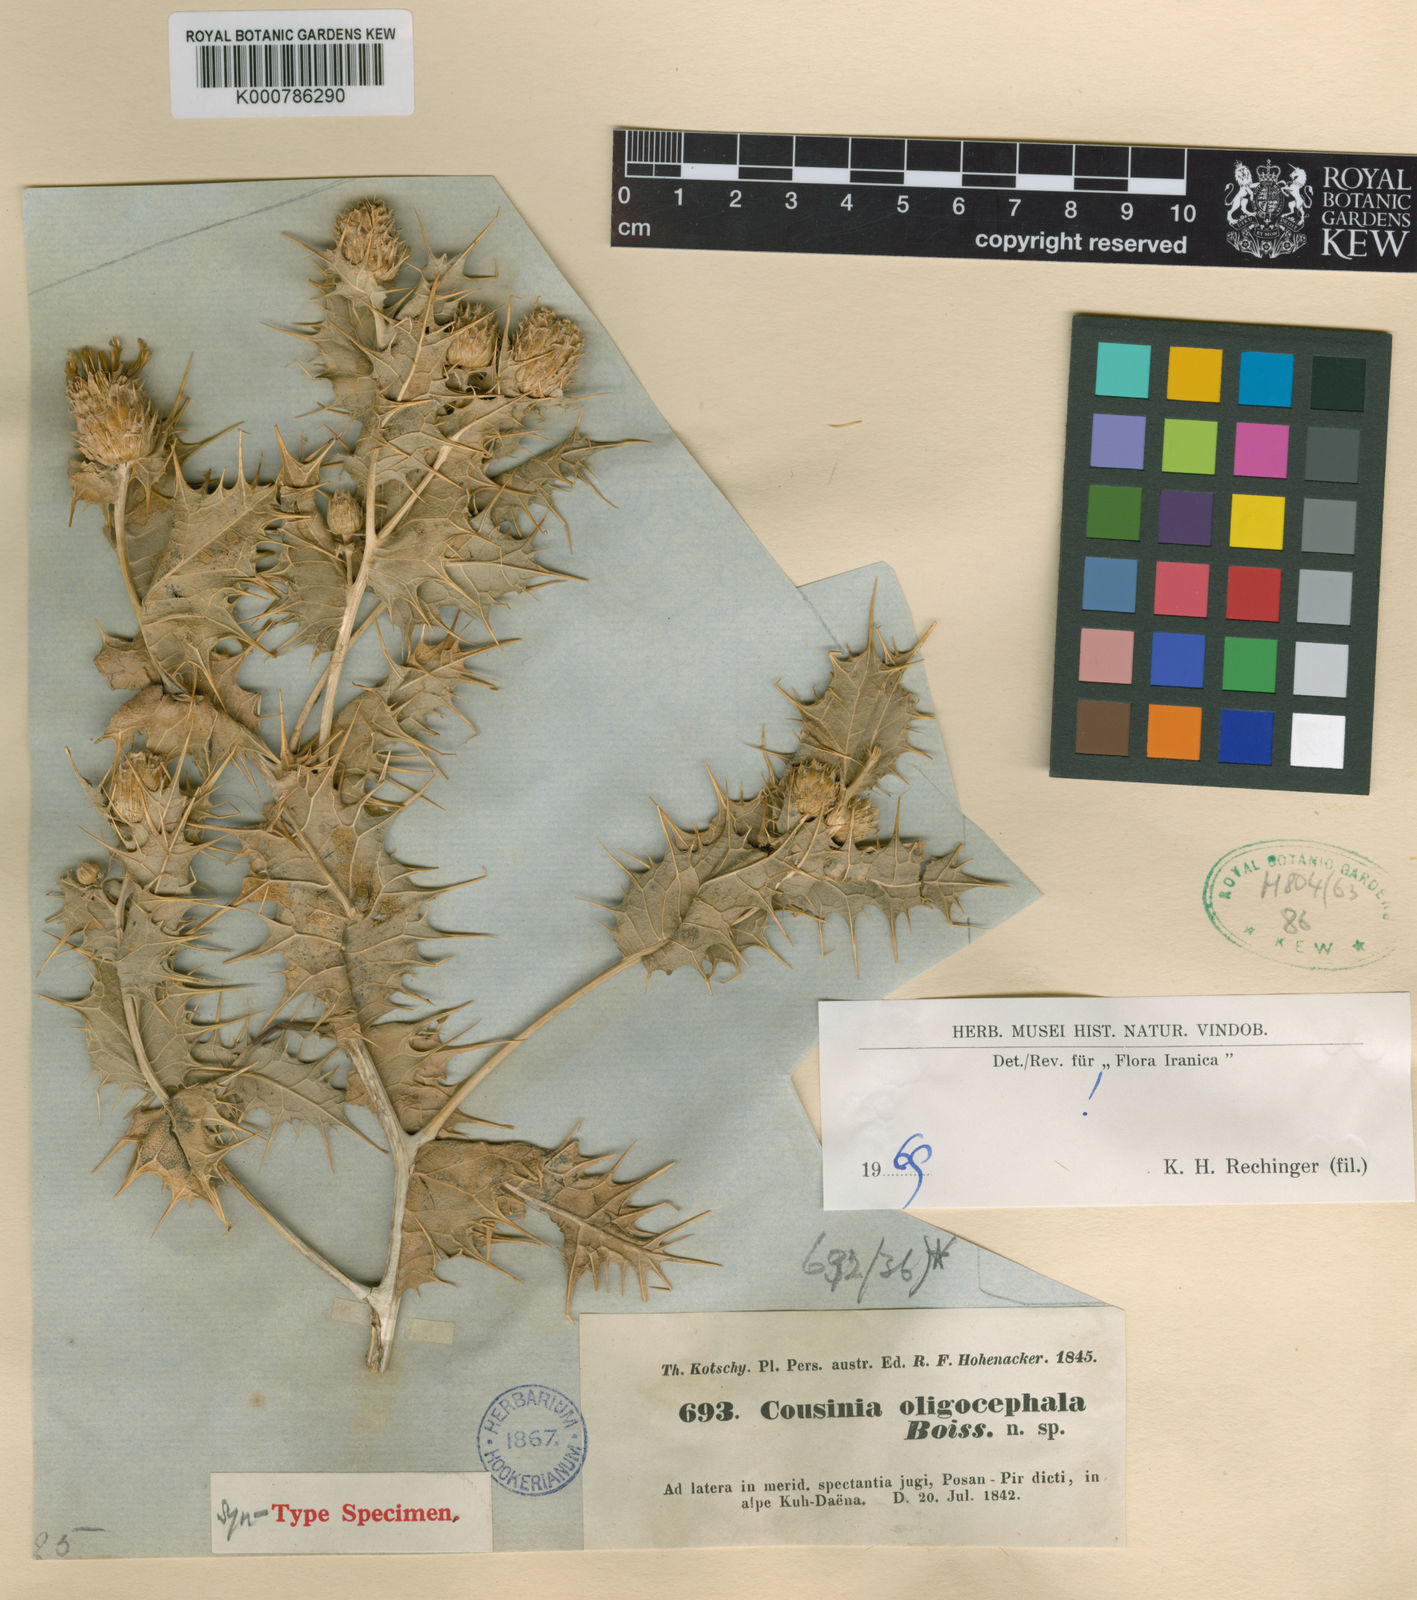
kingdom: Plantae
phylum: Tracheophyta
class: Magnoliopsida
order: Asterales
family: Asteraceae
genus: Cousinia
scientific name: Cousinia oligocephala
